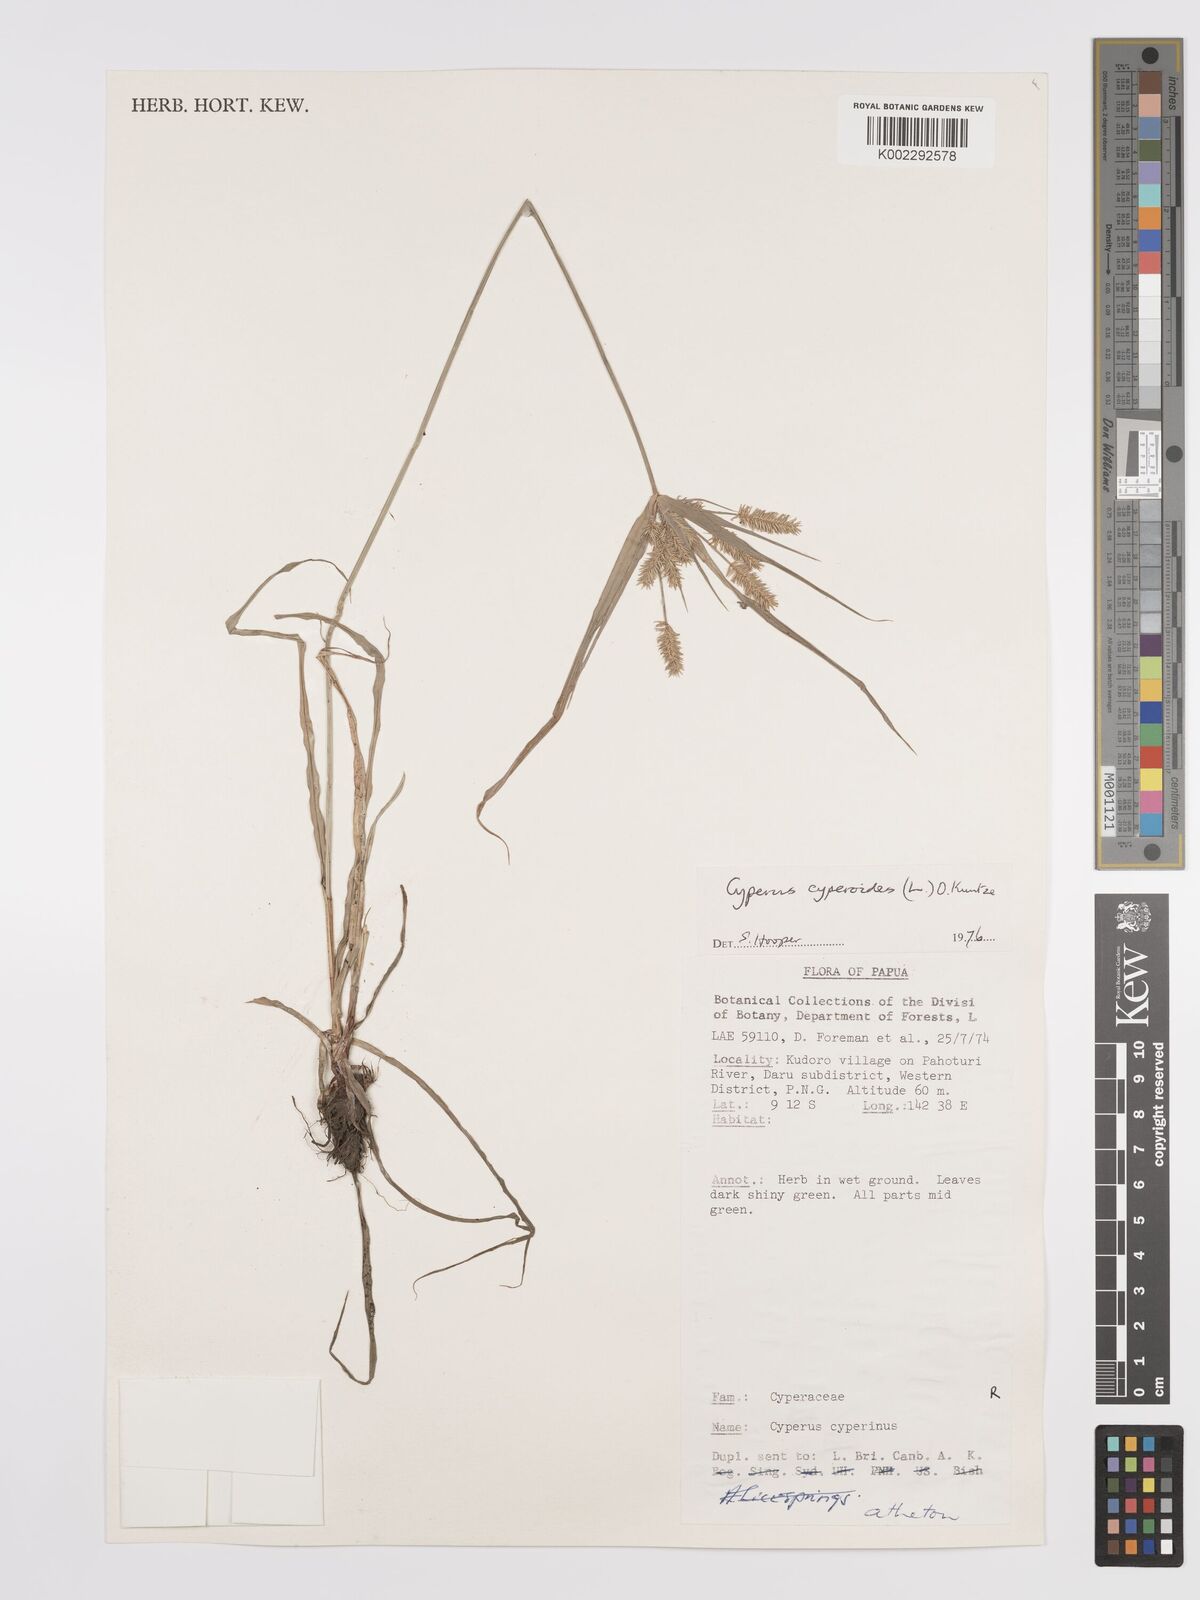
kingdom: Plantae
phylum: Tracheophyta
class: Liliopsida
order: Poales
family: Cyperaceae
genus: Cyperus
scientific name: Cyperus cyperoides
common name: Pacific island flat sedge
